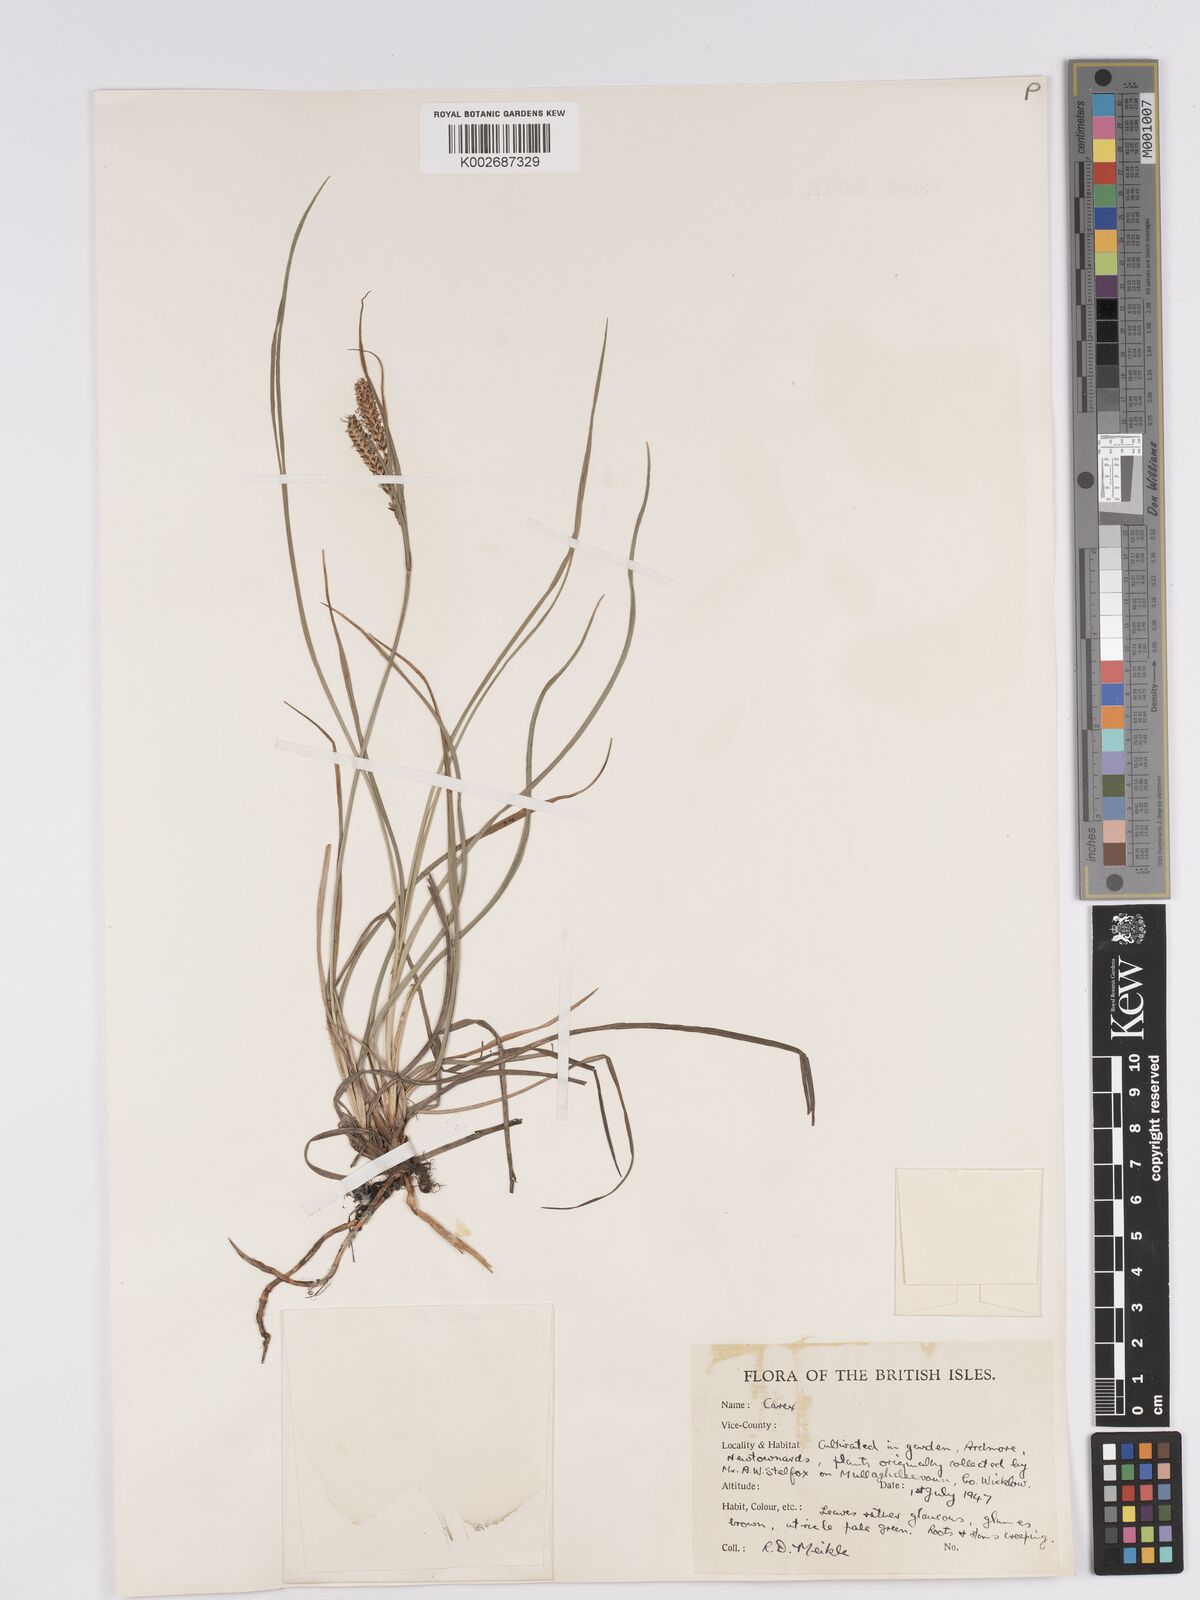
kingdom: Plantae
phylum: Tracheophyta
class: Liliopsida
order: Poales
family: Cyperaceae
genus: Carex
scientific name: Carex nigra
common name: Common sedge
